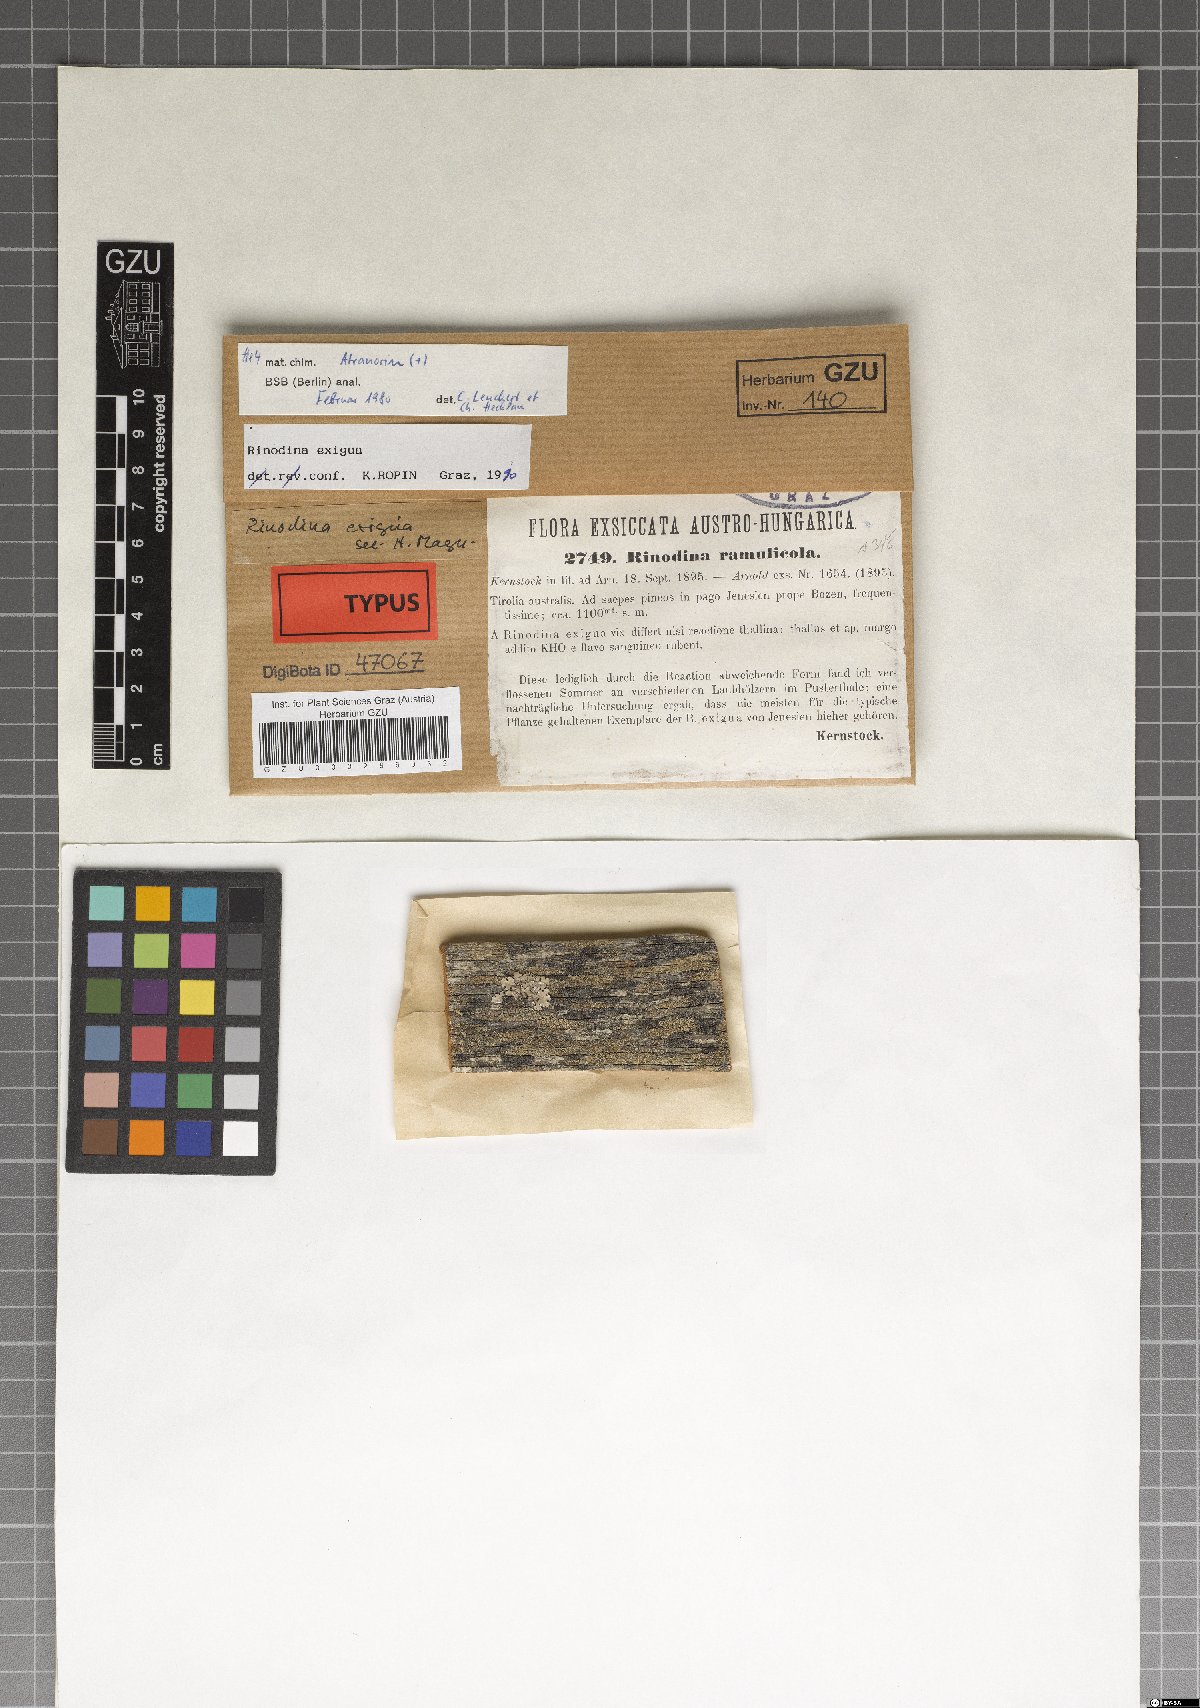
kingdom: Fungi
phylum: Ascomycota
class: Lecanoromycetes
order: Caliciales
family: Physciaceae
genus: Rinodina
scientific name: Rinodina glauca
